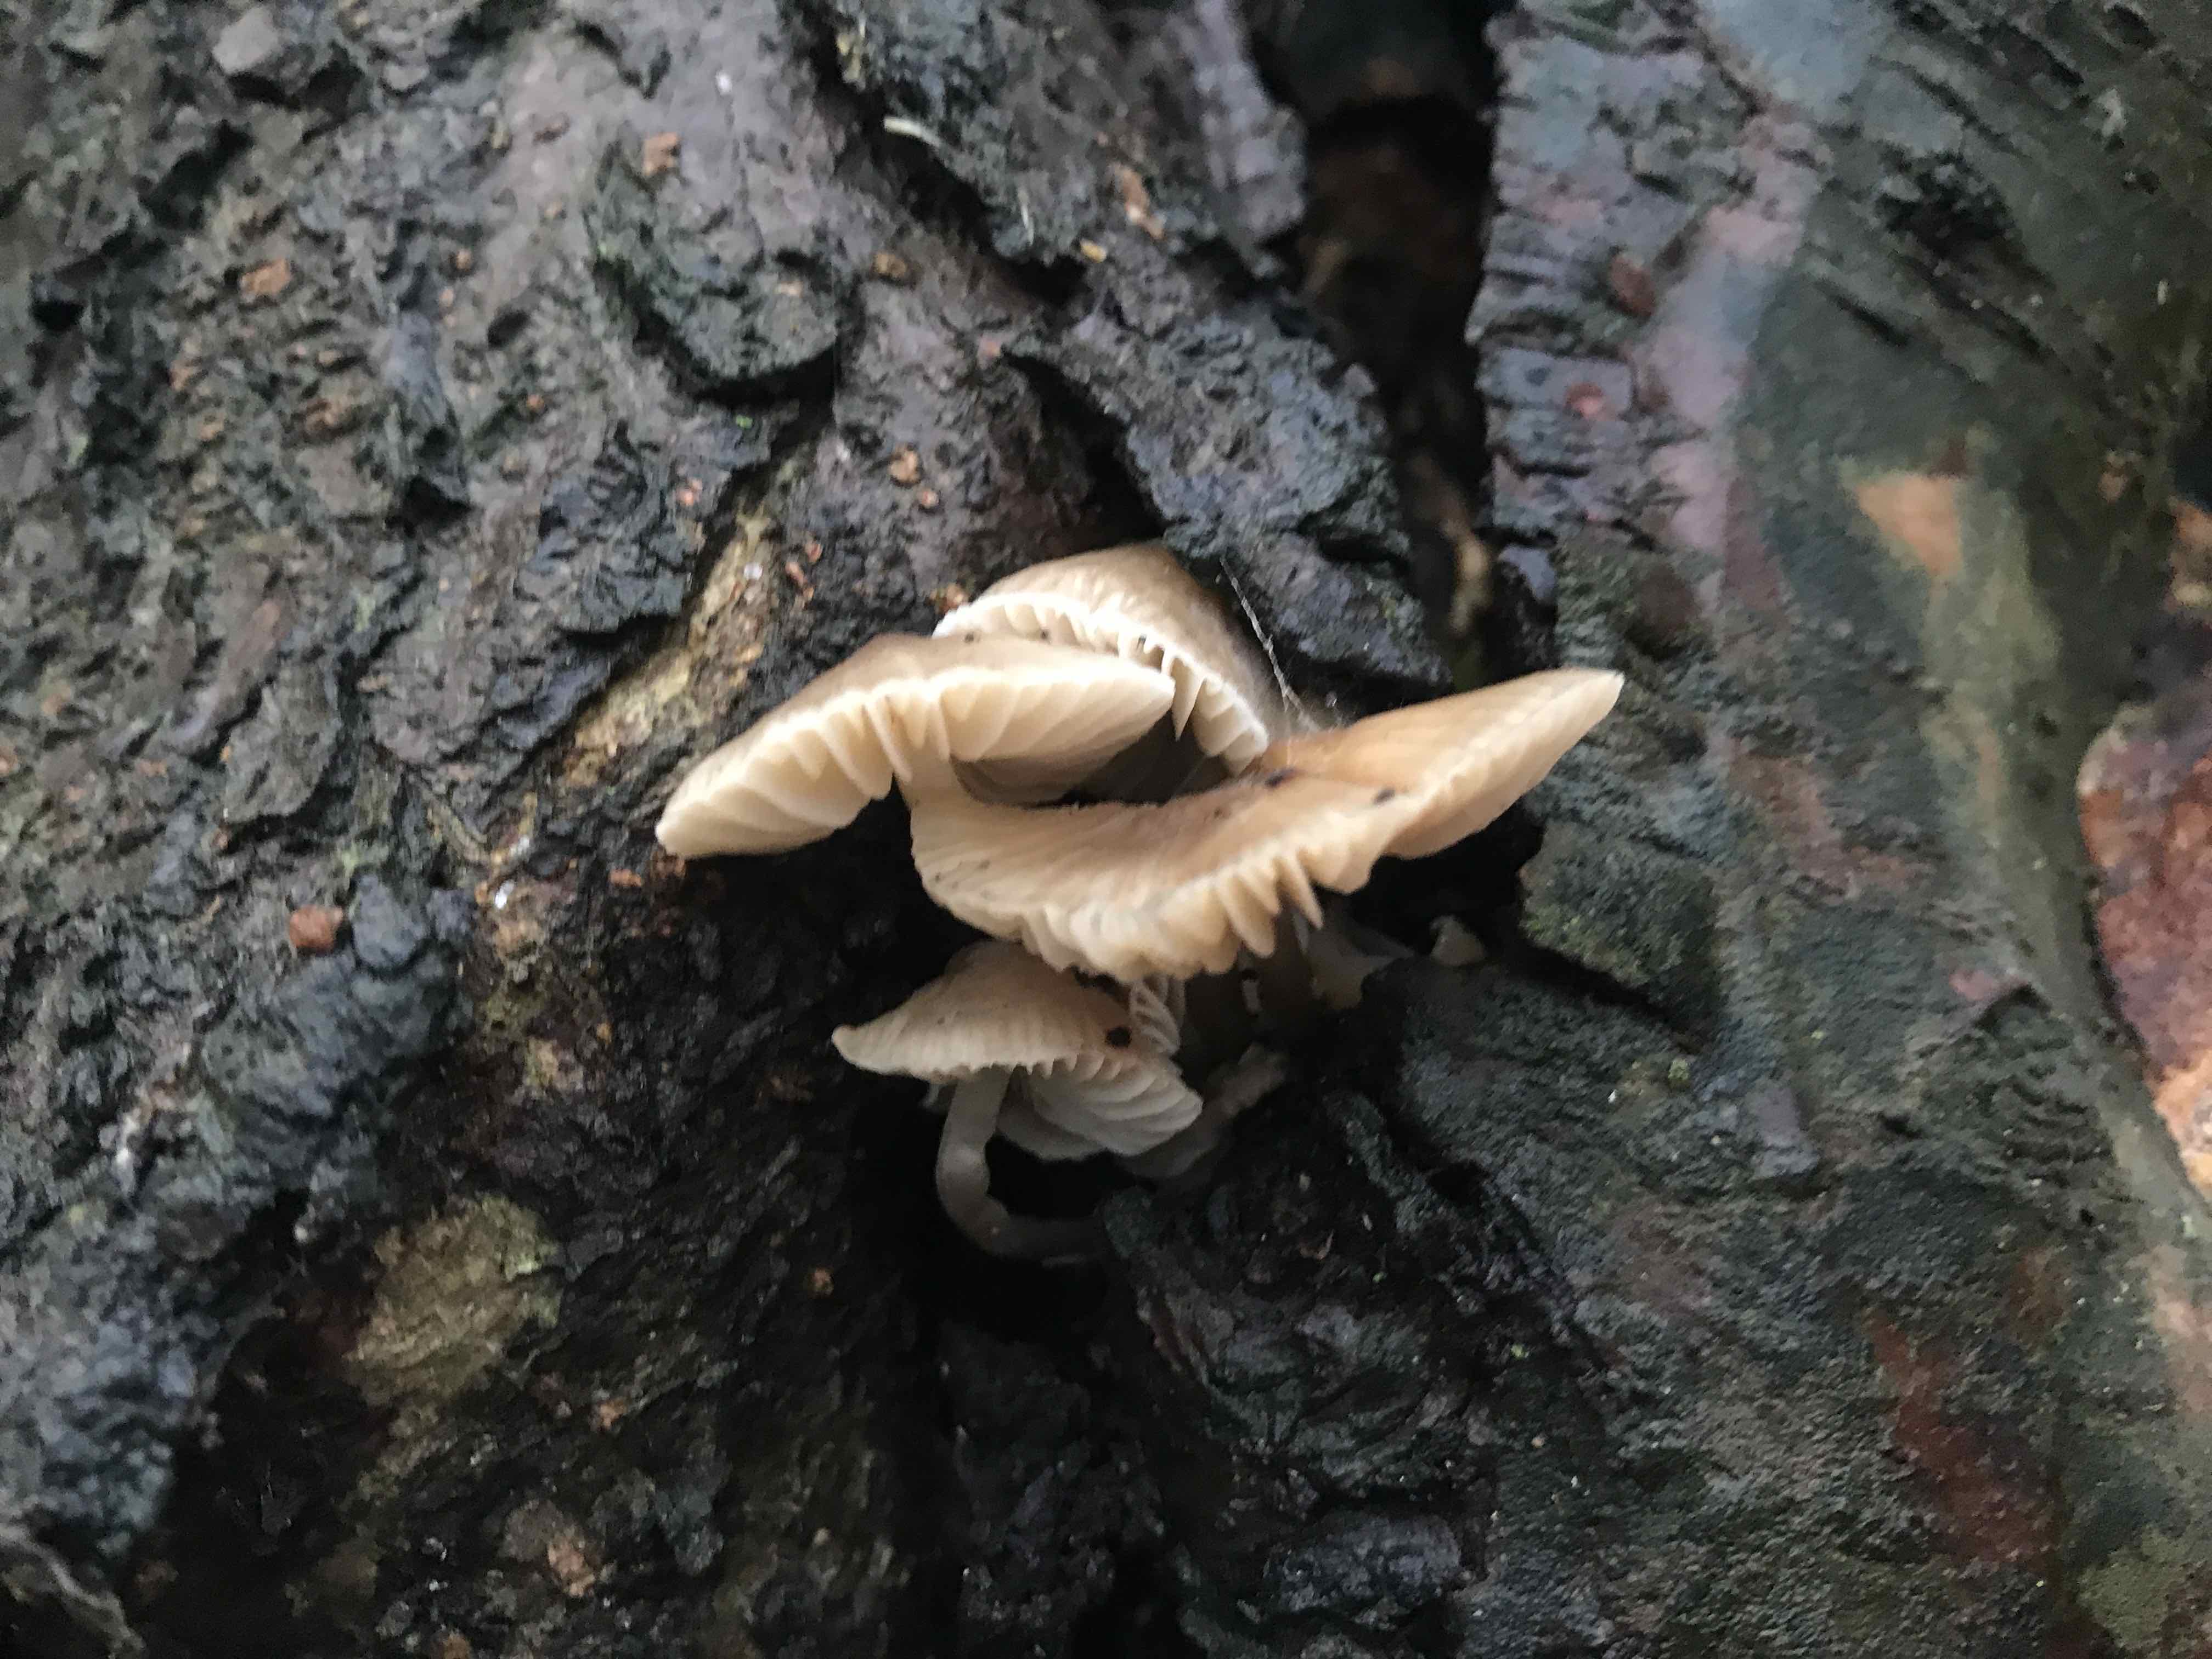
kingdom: Fungi
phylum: Basidiomycota
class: Agaricomycetes
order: Agaricales
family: Mycenaceae
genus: Mycena
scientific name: Mycena
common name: huesvamp
